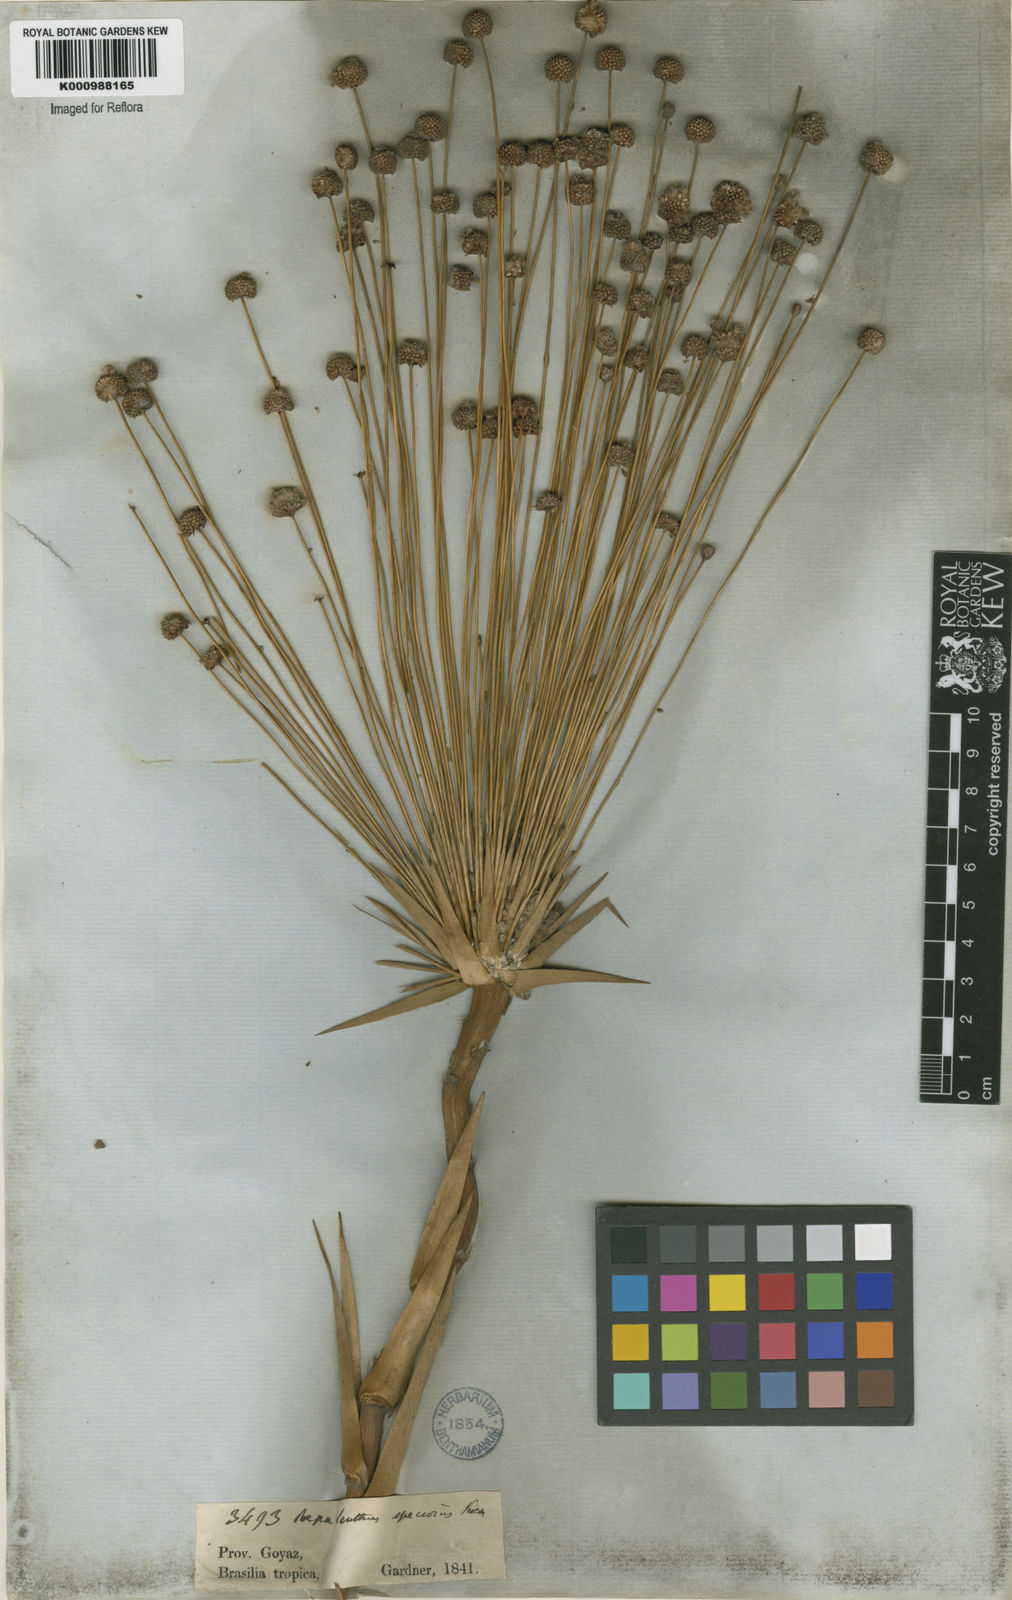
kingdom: Plantae
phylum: Tracheophyta
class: Liliopsida
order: Poales
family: Eriocaulaceae
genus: Paepalanthus
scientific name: Paepalanthus
